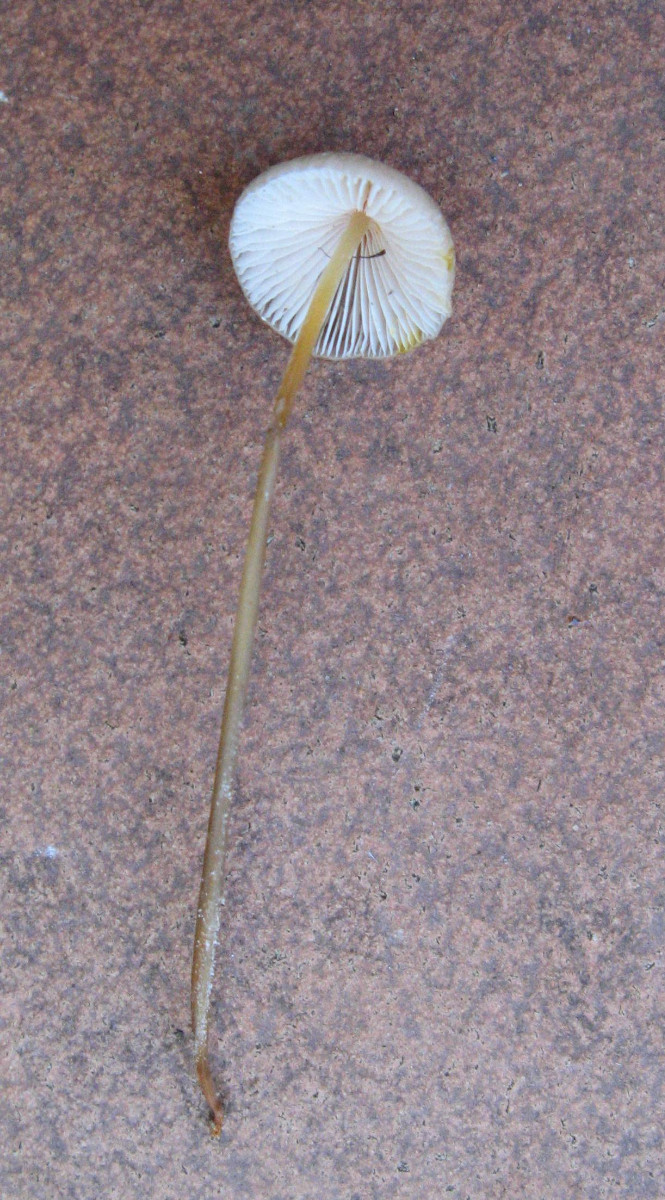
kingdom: Fungi
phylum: Basidiomycota
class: Agaricomycetes
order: Agaricales
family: Mycenaceae
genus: Mycena
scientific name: Mycena crocata
